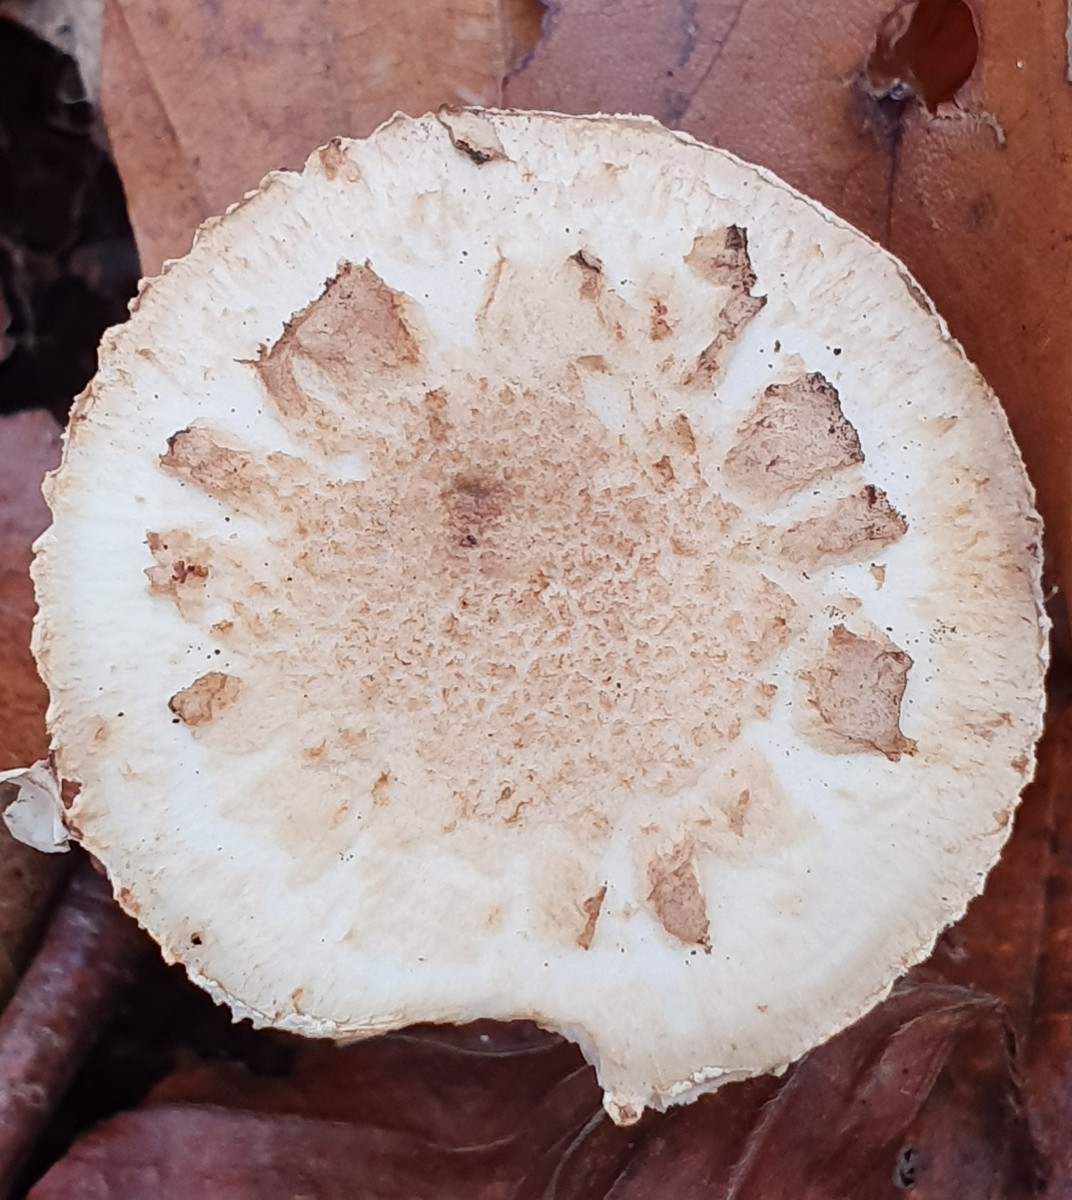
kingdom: Fungi
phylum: Basidiomycota
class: Agaricomycetes
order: Agaricales
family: Amanitaceae
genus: Amanita
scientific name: Amanita citrina
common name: False death-cap
